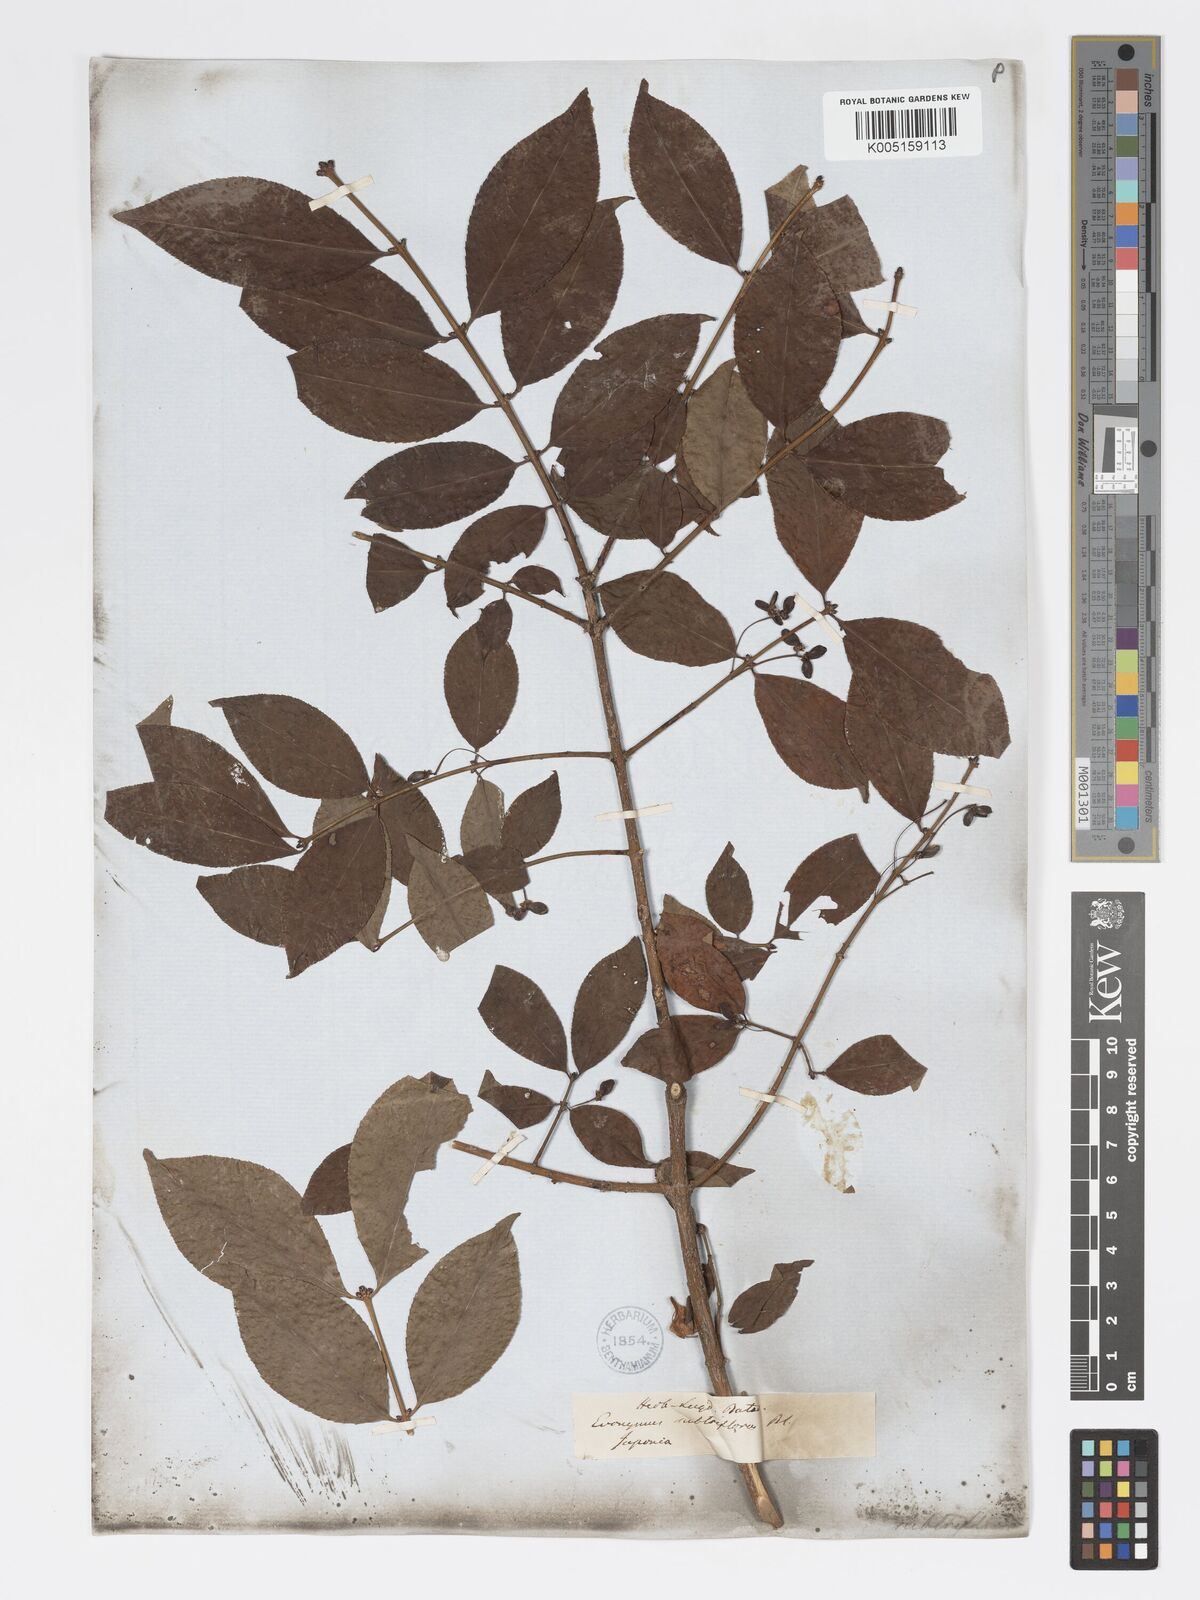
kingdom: Plantae
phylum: Tracheophyta
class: Magnoliopsida
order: Celastrales
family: Celastraceae
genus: Euonymus
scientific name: Euonymus
